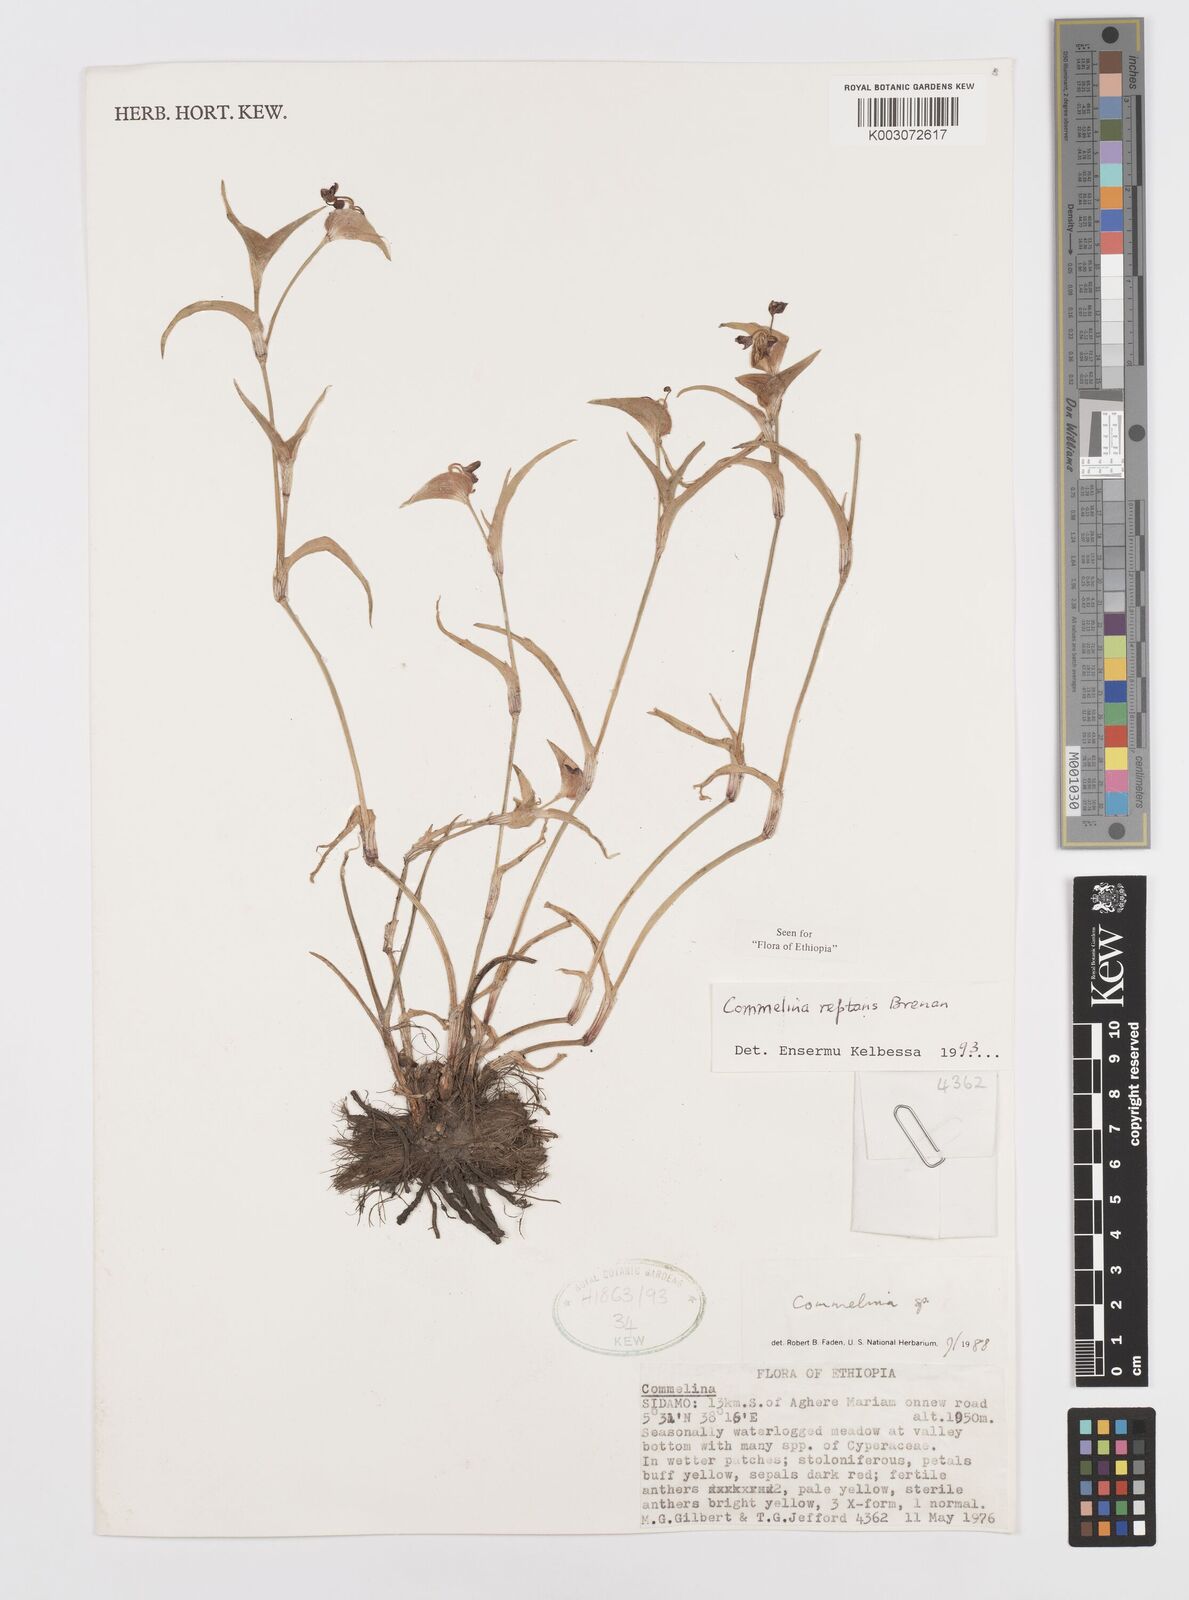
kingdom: Plantae
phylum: Tracheophyta
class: Liliopsida
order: Commelinales
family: Commelinaceae
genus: Commelina
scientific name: Commelina reptans
